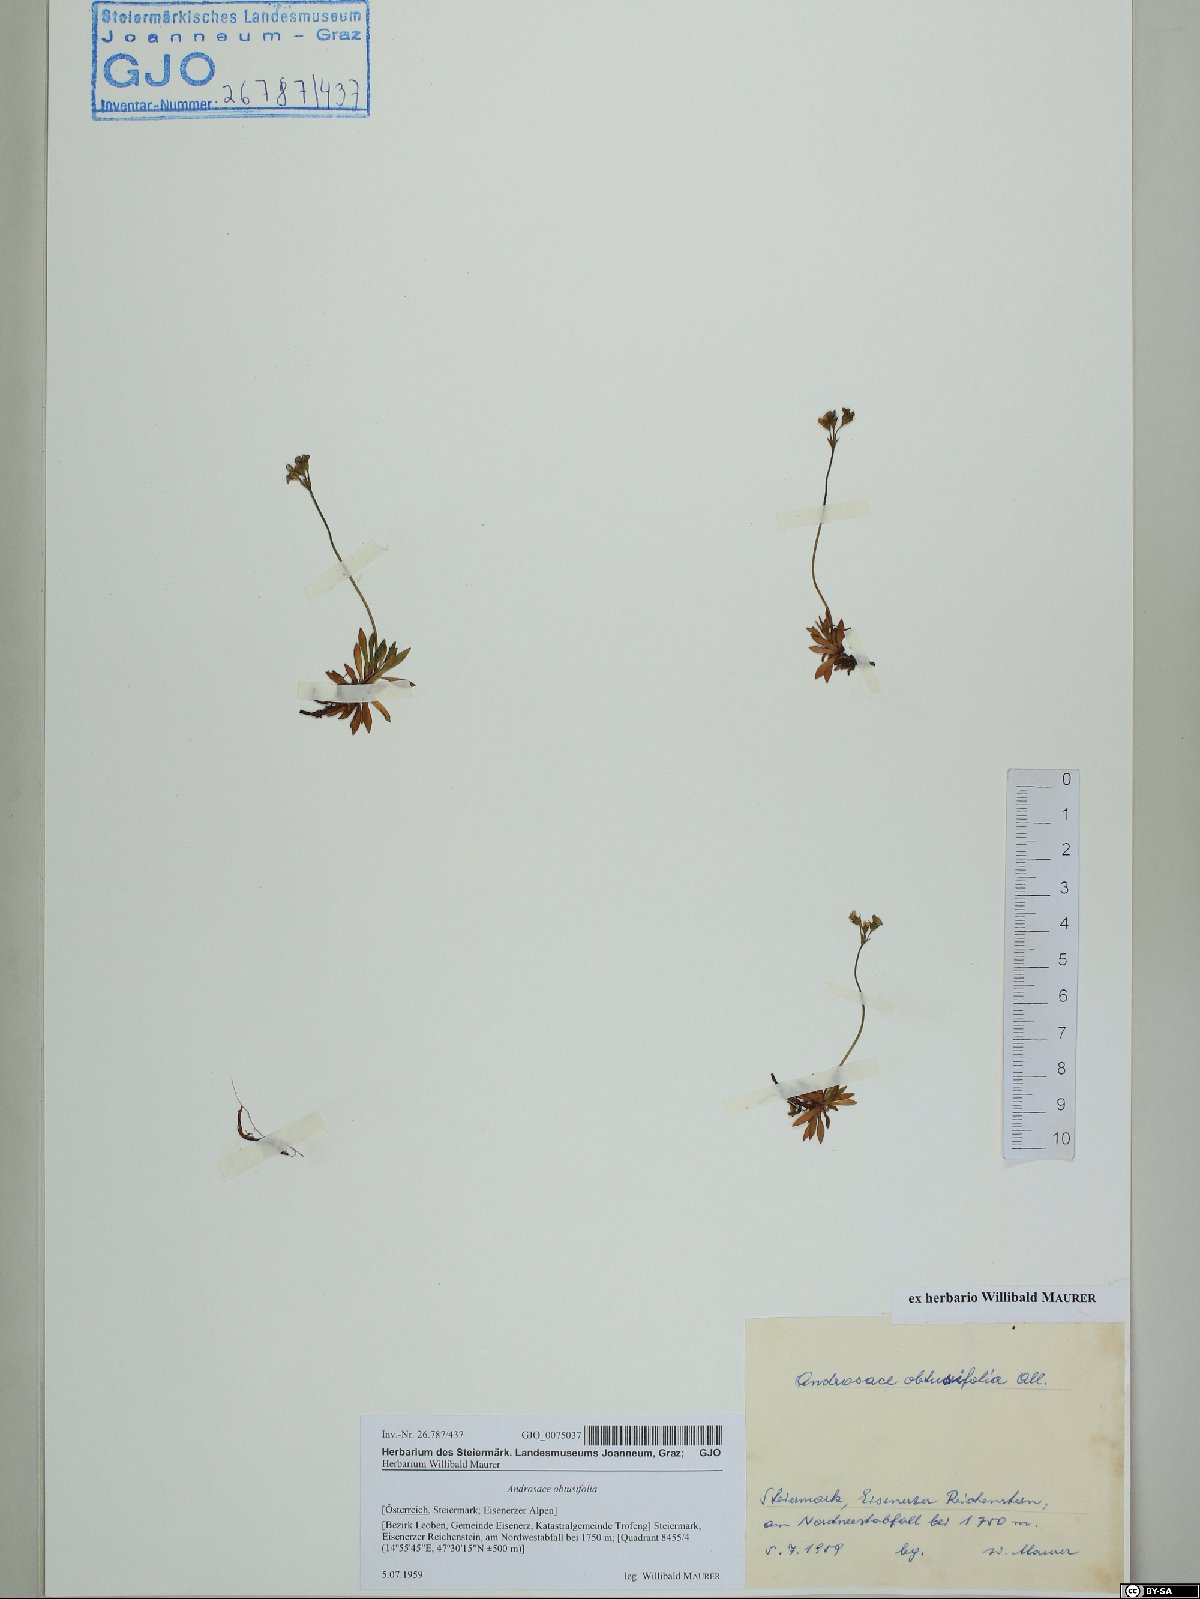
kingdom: Plantae
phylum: Tracheophyta
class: Magnoliopsida
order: Ericales
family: Primulaceae
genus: Androsace
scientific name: Androsace obtusifolia
